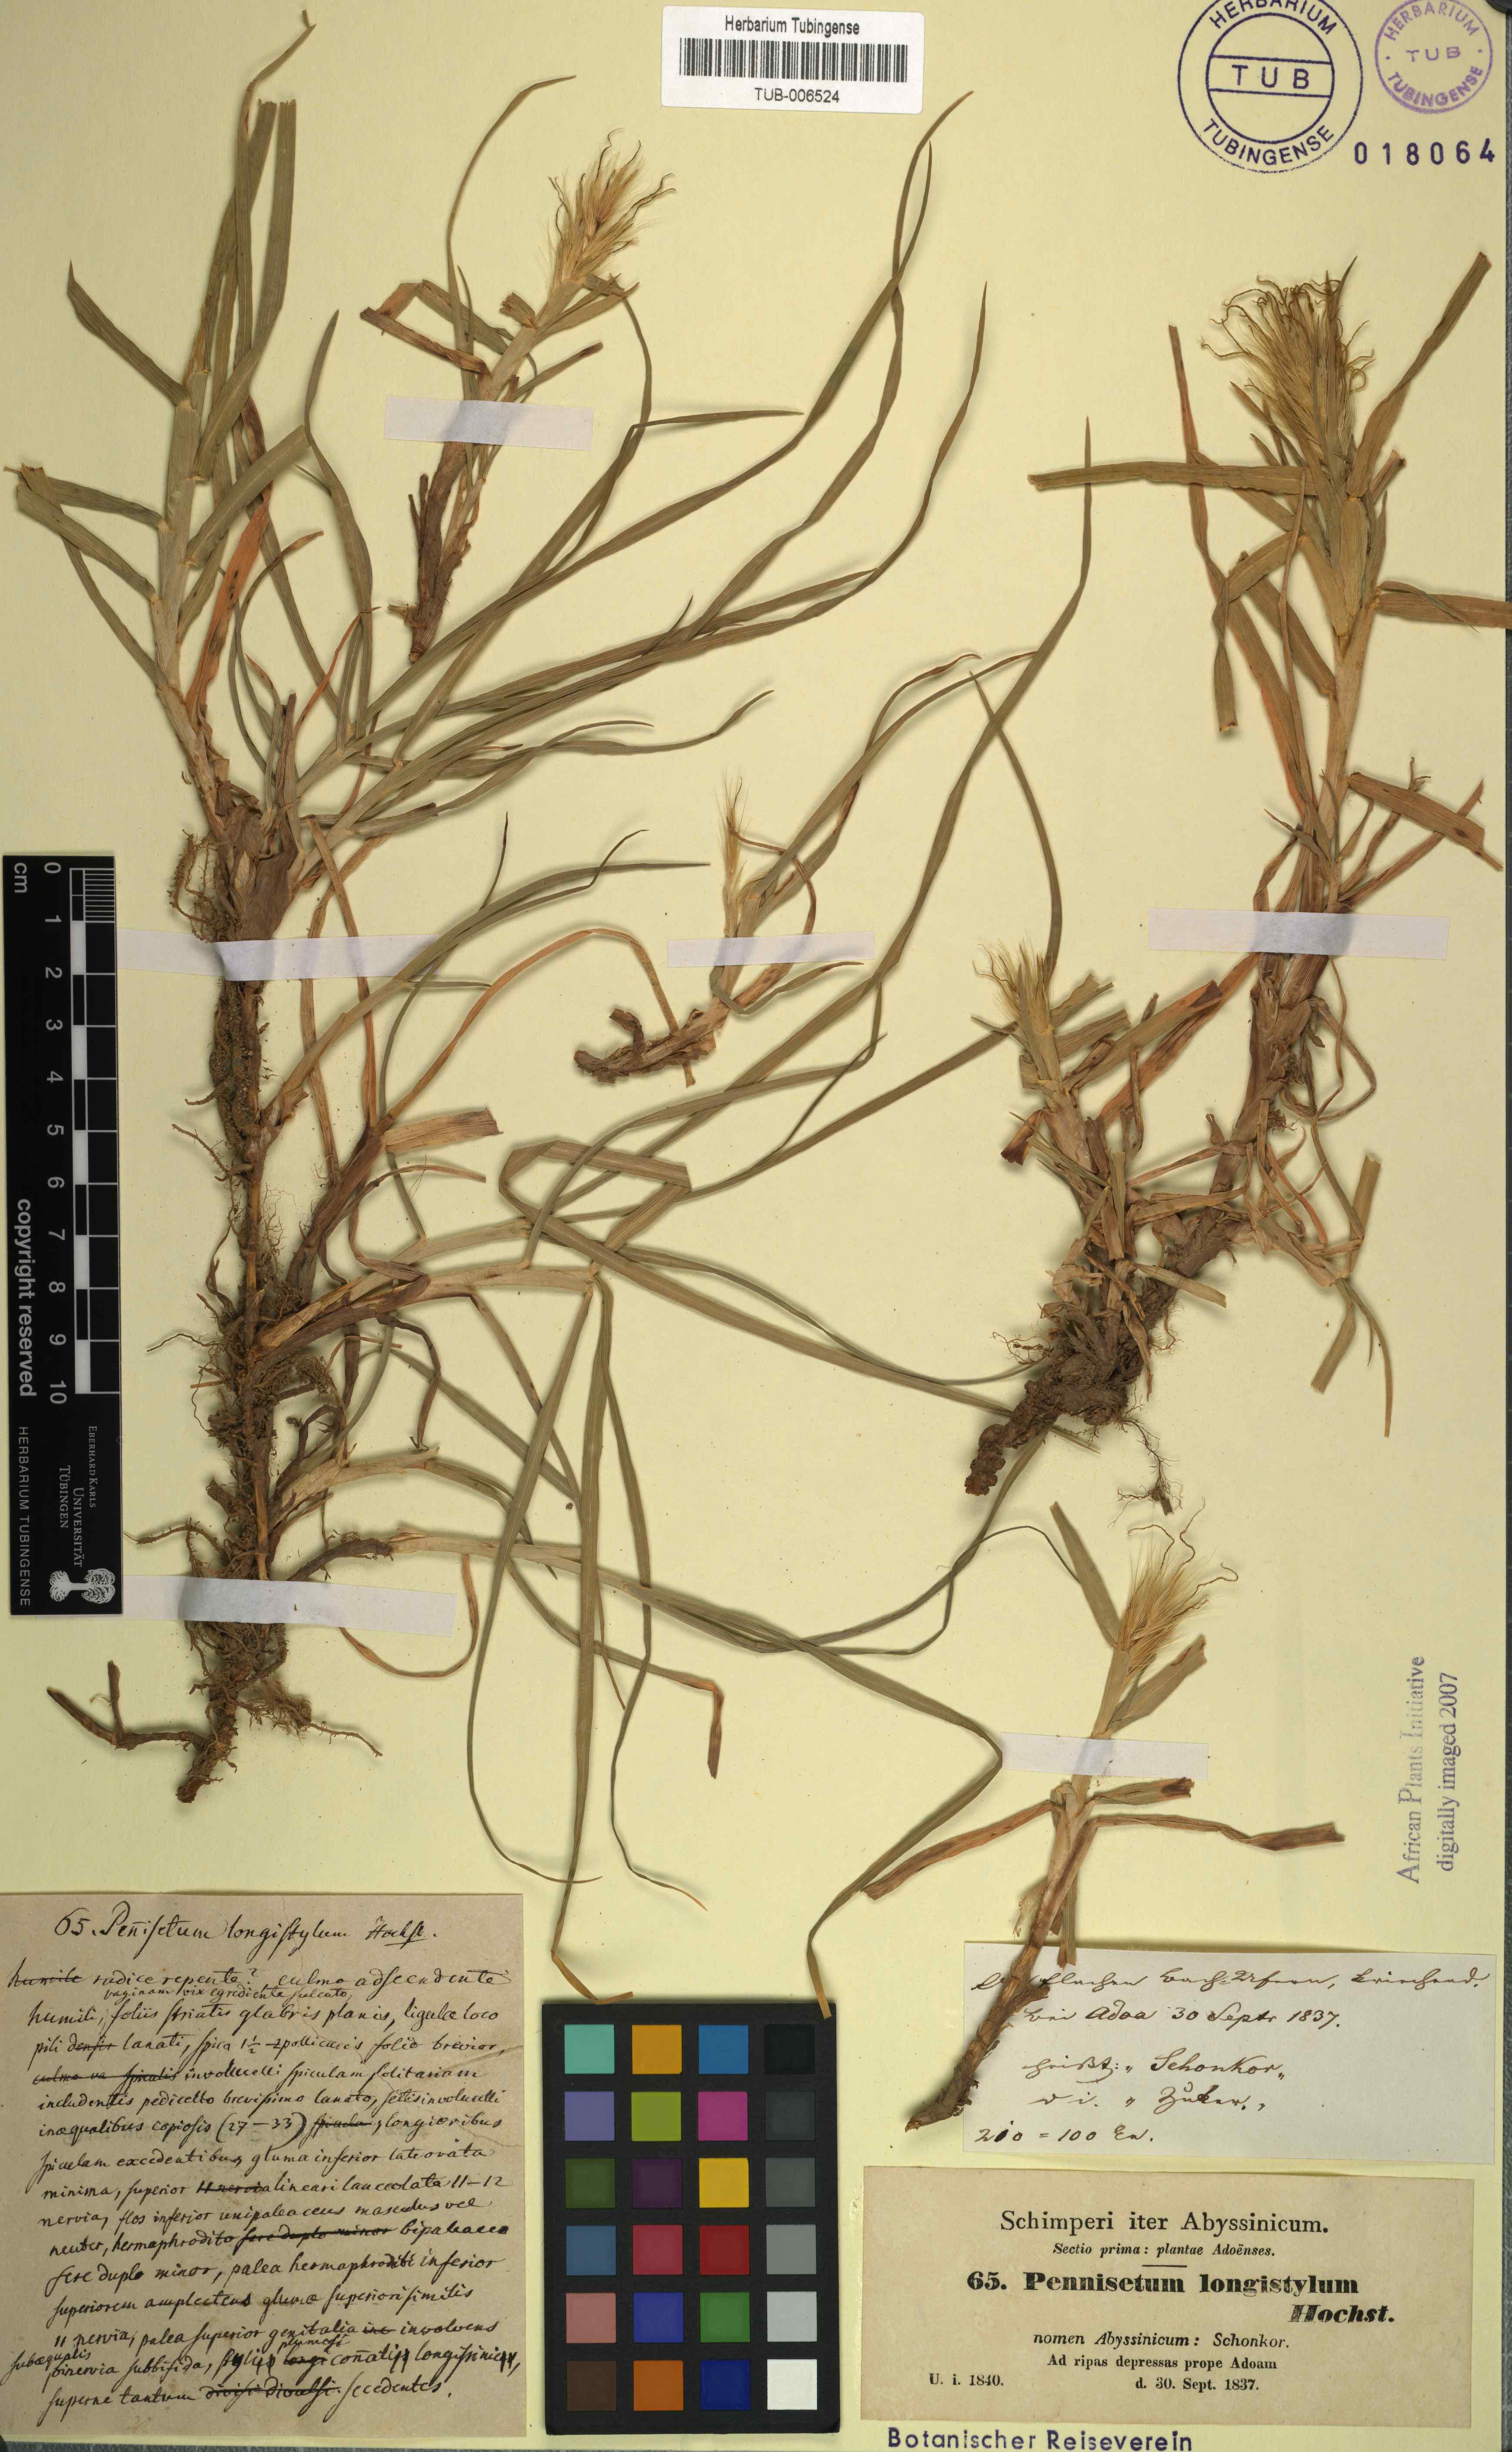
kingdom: Plantae
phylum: Tracheophyta
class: Liliopsida
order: Poales
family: Poaceae
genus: Cenchrus
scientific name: Cenchrus longistylus
